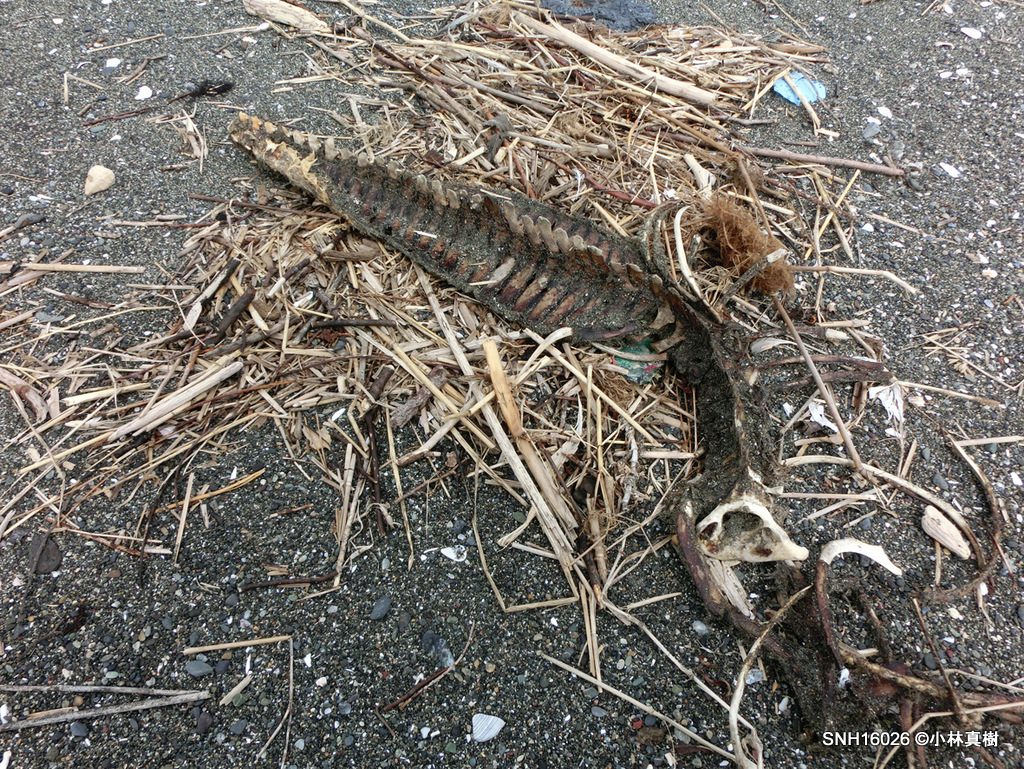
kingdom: Animalia
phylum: Chordata
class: Mammalia
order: Cetacea
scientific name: Cetacea
